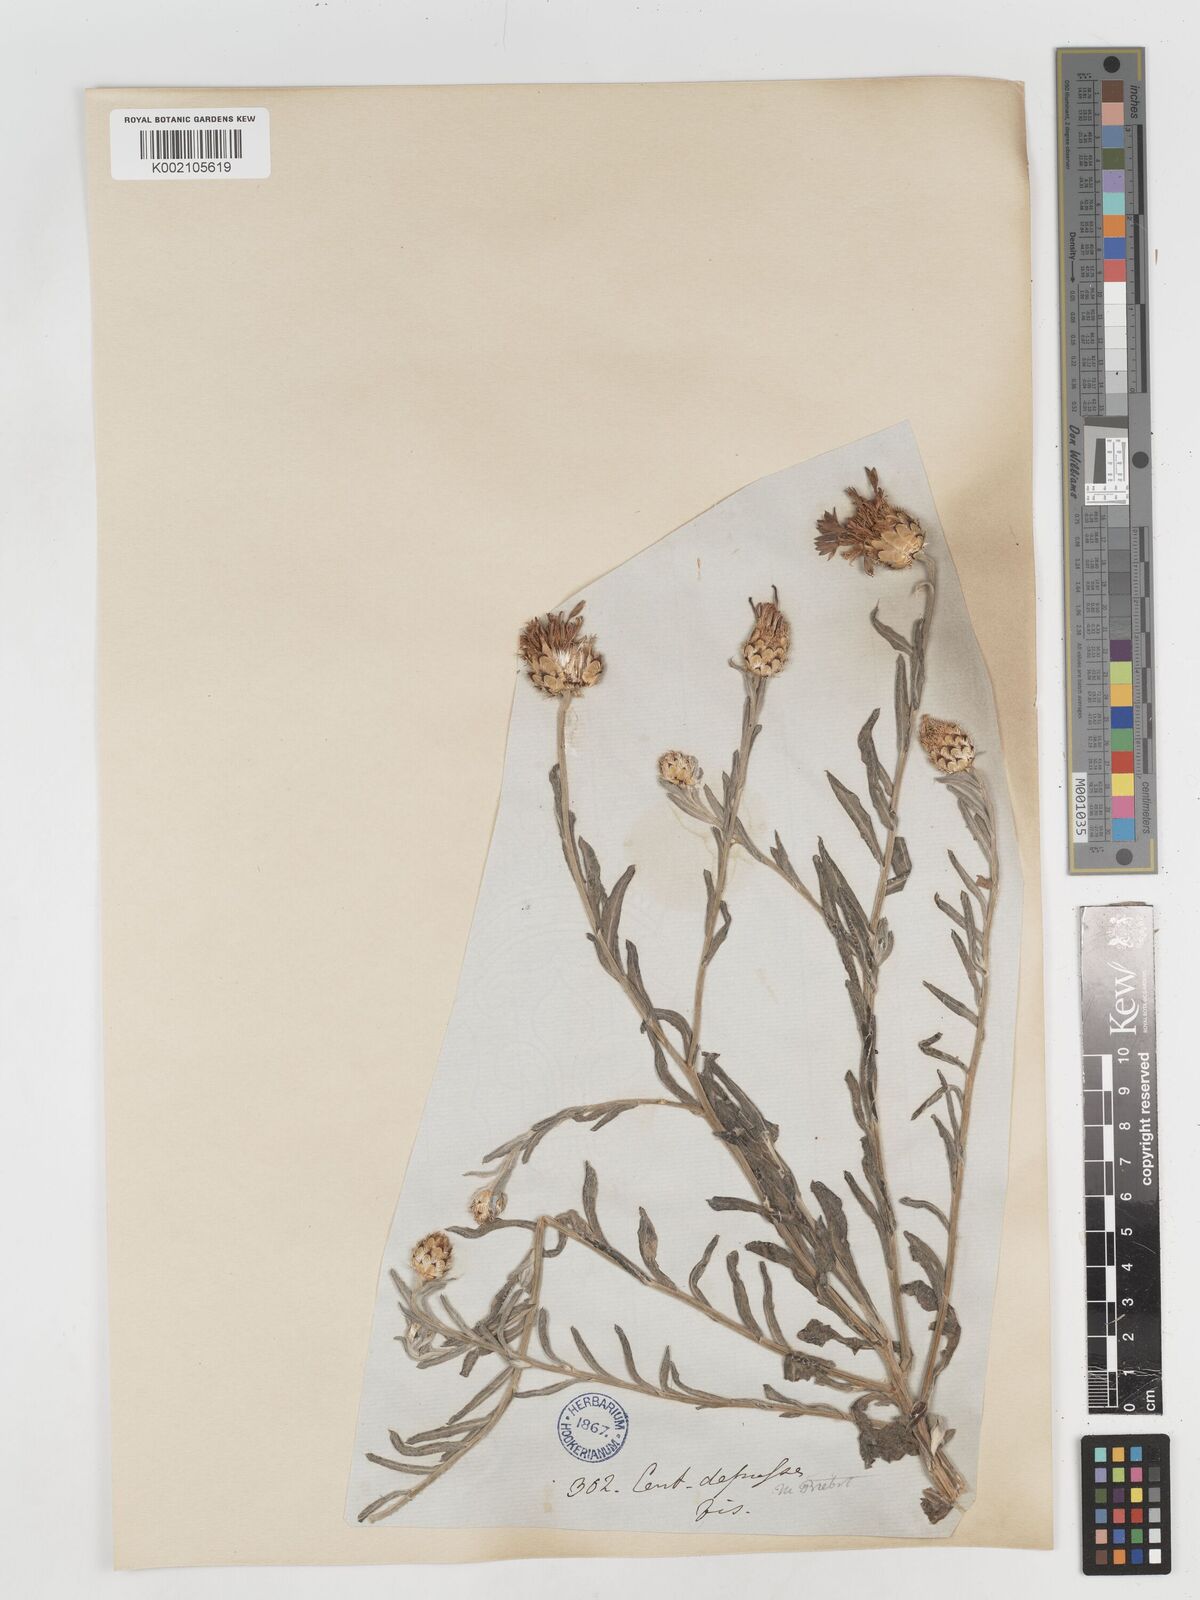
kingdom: Plantae
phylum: Tracheophyta
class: Magnoliopsida
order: Asterales
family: Asteraceae
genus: Centaurea
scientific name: Centaurea depressa
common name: Iranian knapweed
